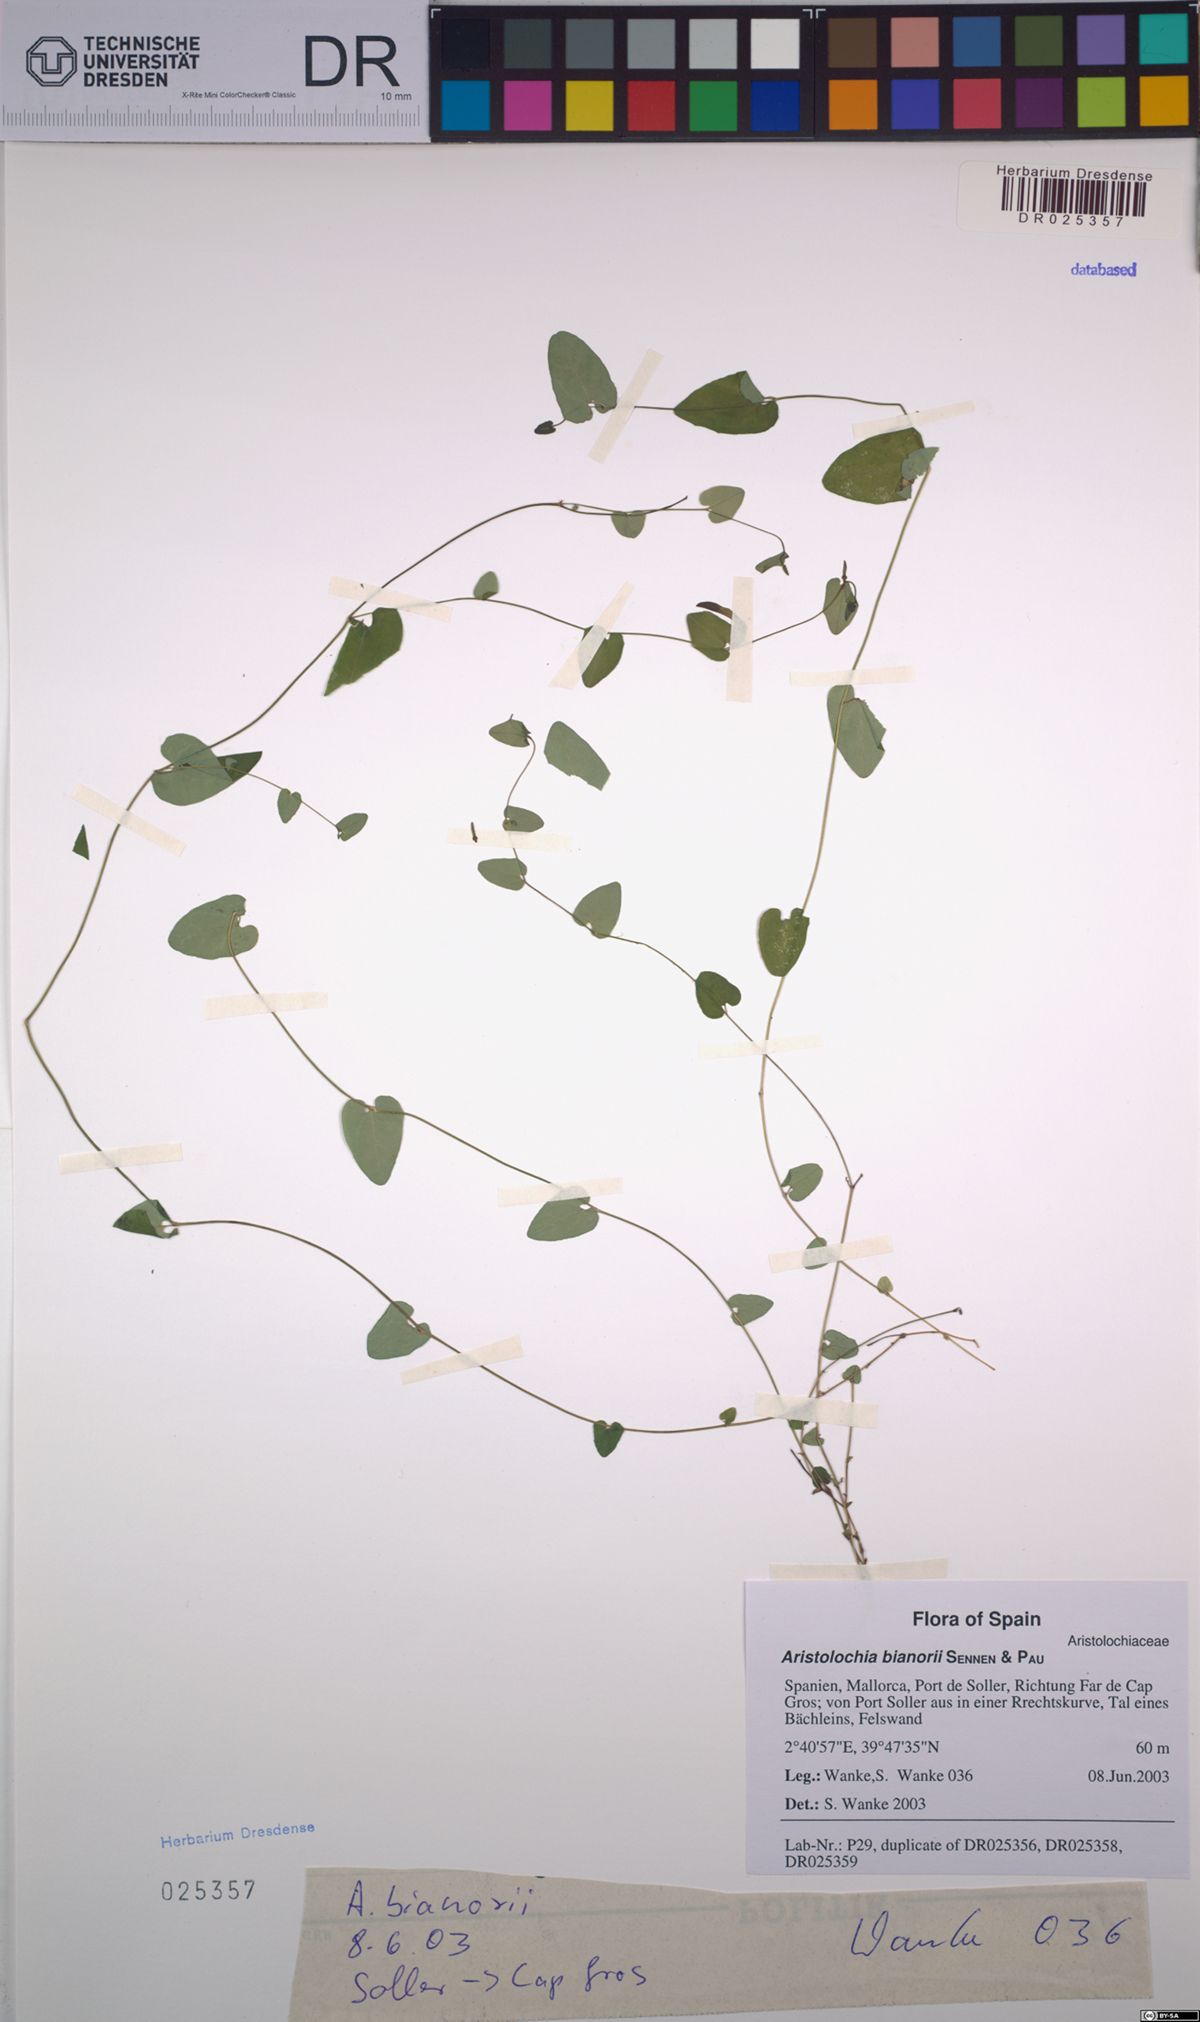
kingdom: Plantae
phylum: Tracheophyta
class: Magnoliopsida
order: Piperales
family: Aristolochiaceae
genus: Aristolochia
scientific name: Aristolochia bianorii
